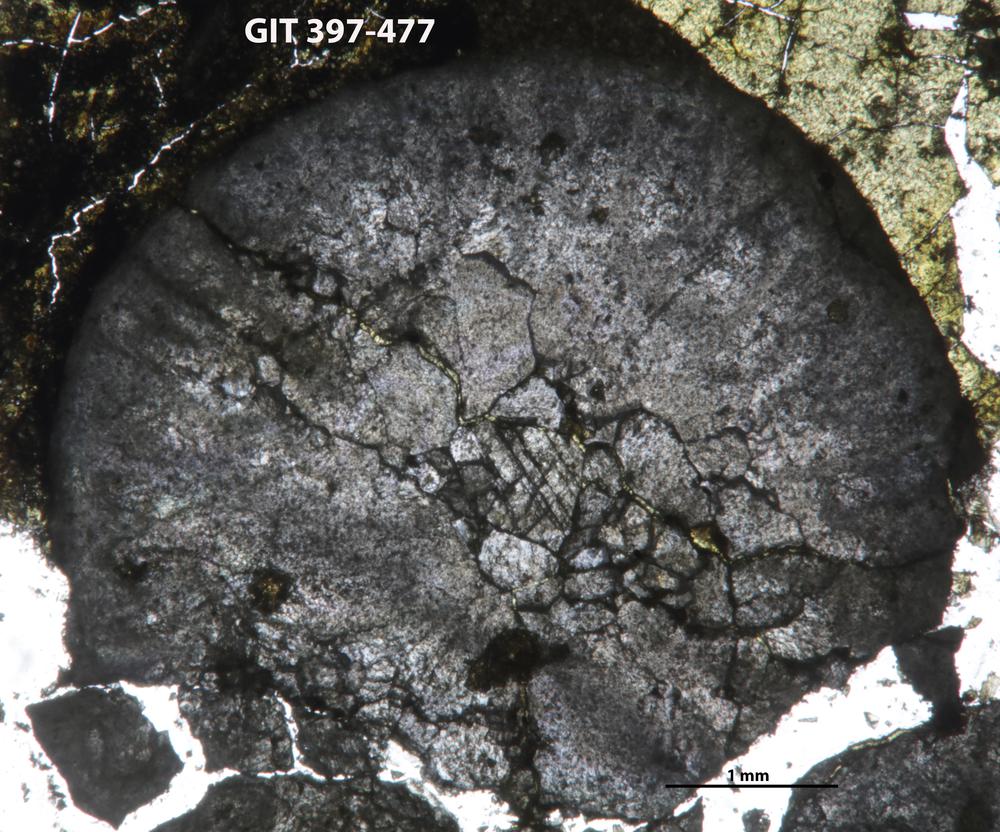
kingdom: Animalia
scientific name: Animalia
